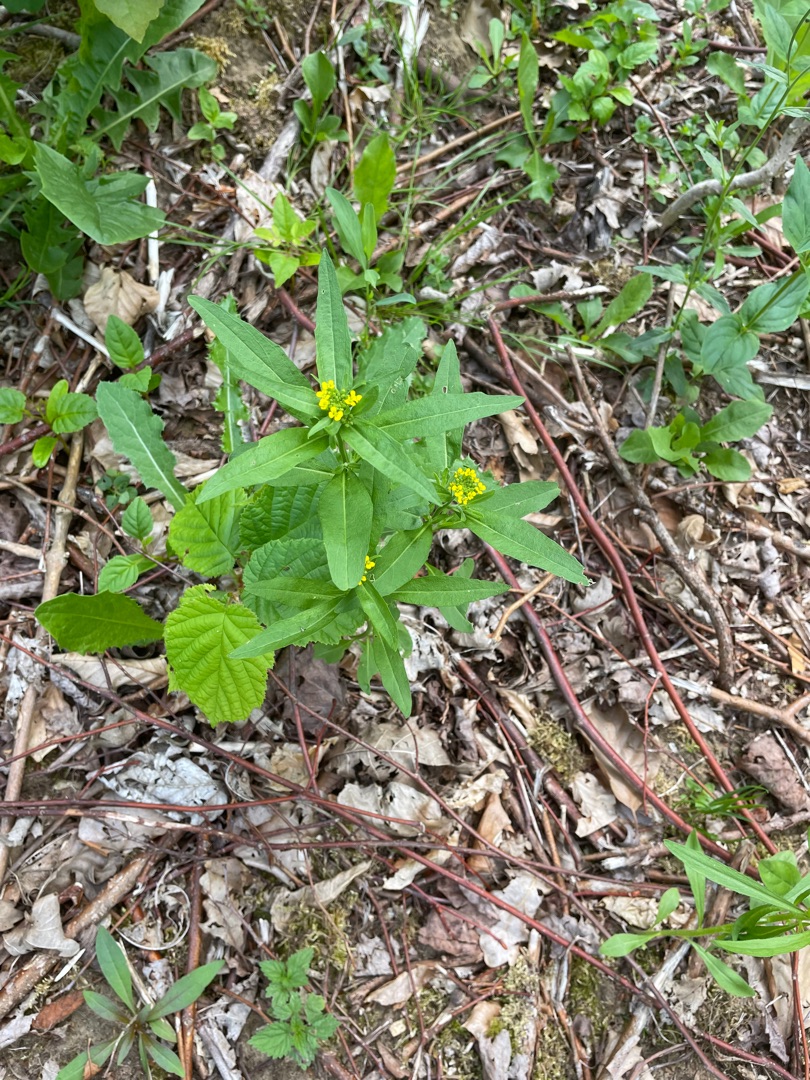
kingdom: Plantae
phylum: Tracheophyta
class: Magnoliopsida
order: Brassicales
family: Brassicaceae
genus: Erysimum
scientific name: Erysimum cheiranthoides
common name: Gyldenlak-hjørneklap
